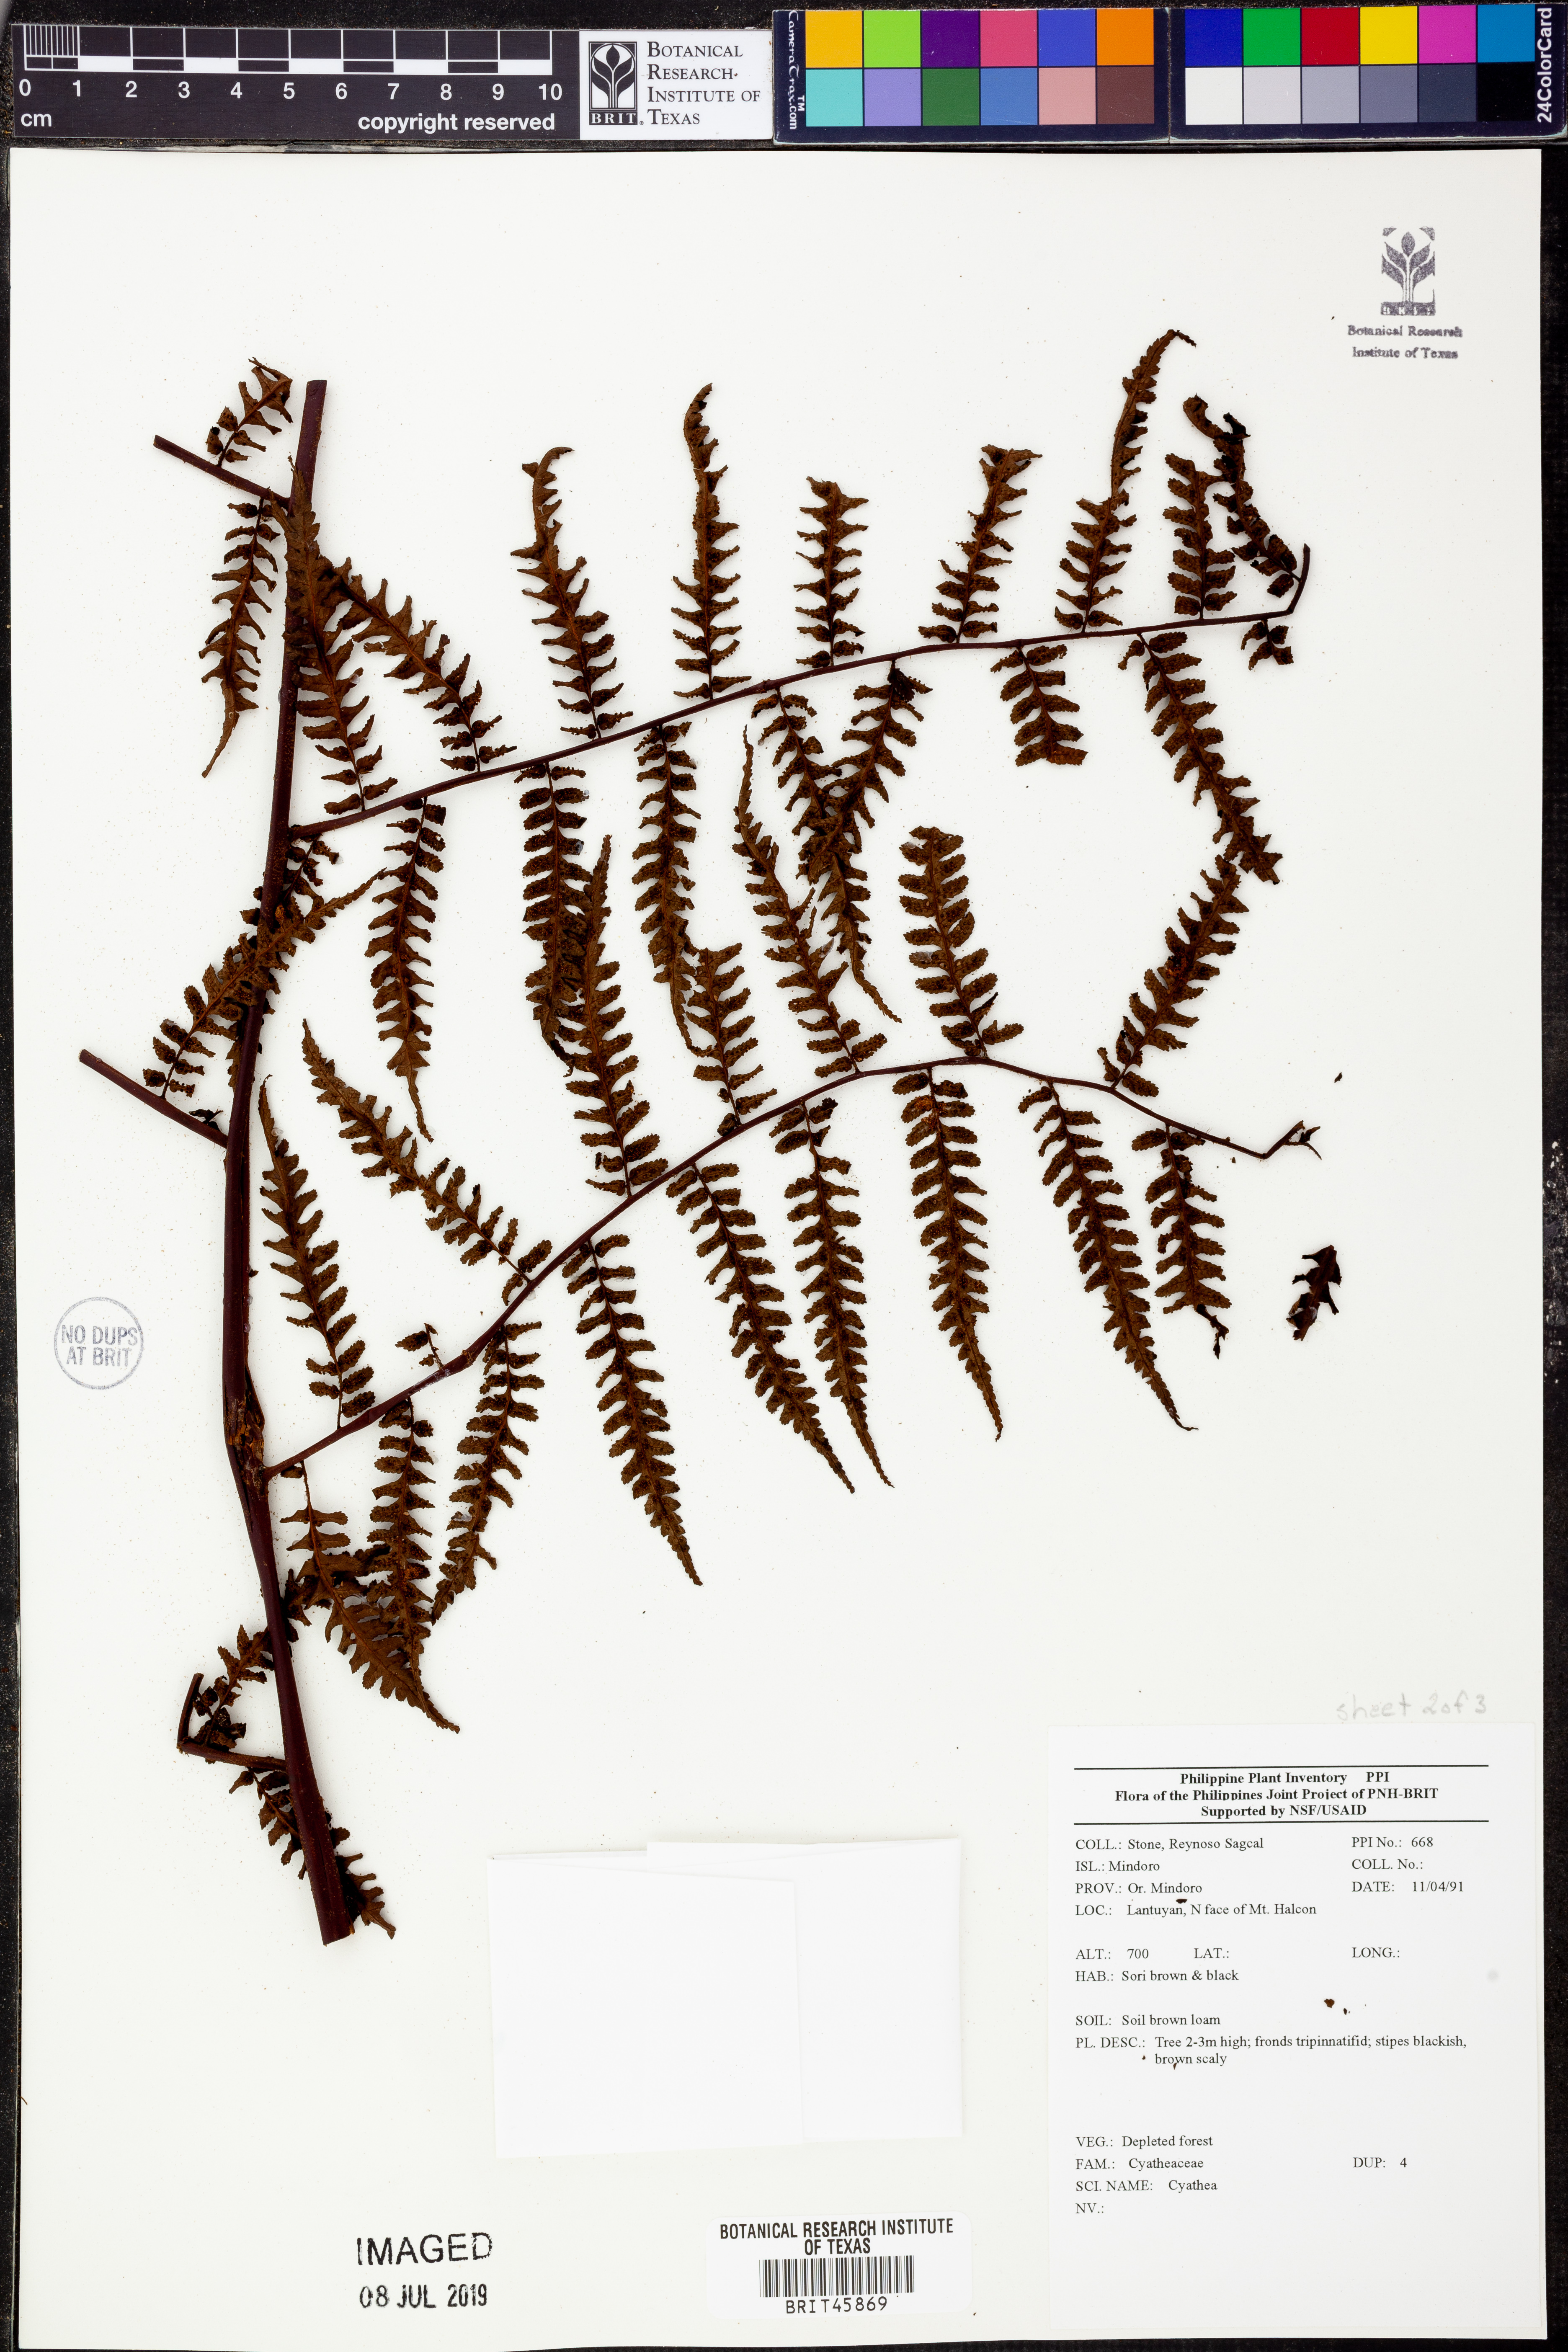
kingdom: Plantae
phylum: Tracheophyta
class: Polypodiopsida
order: Cyatheales
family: Cyatheaceae
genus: Cyathea
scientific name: Cyathea
